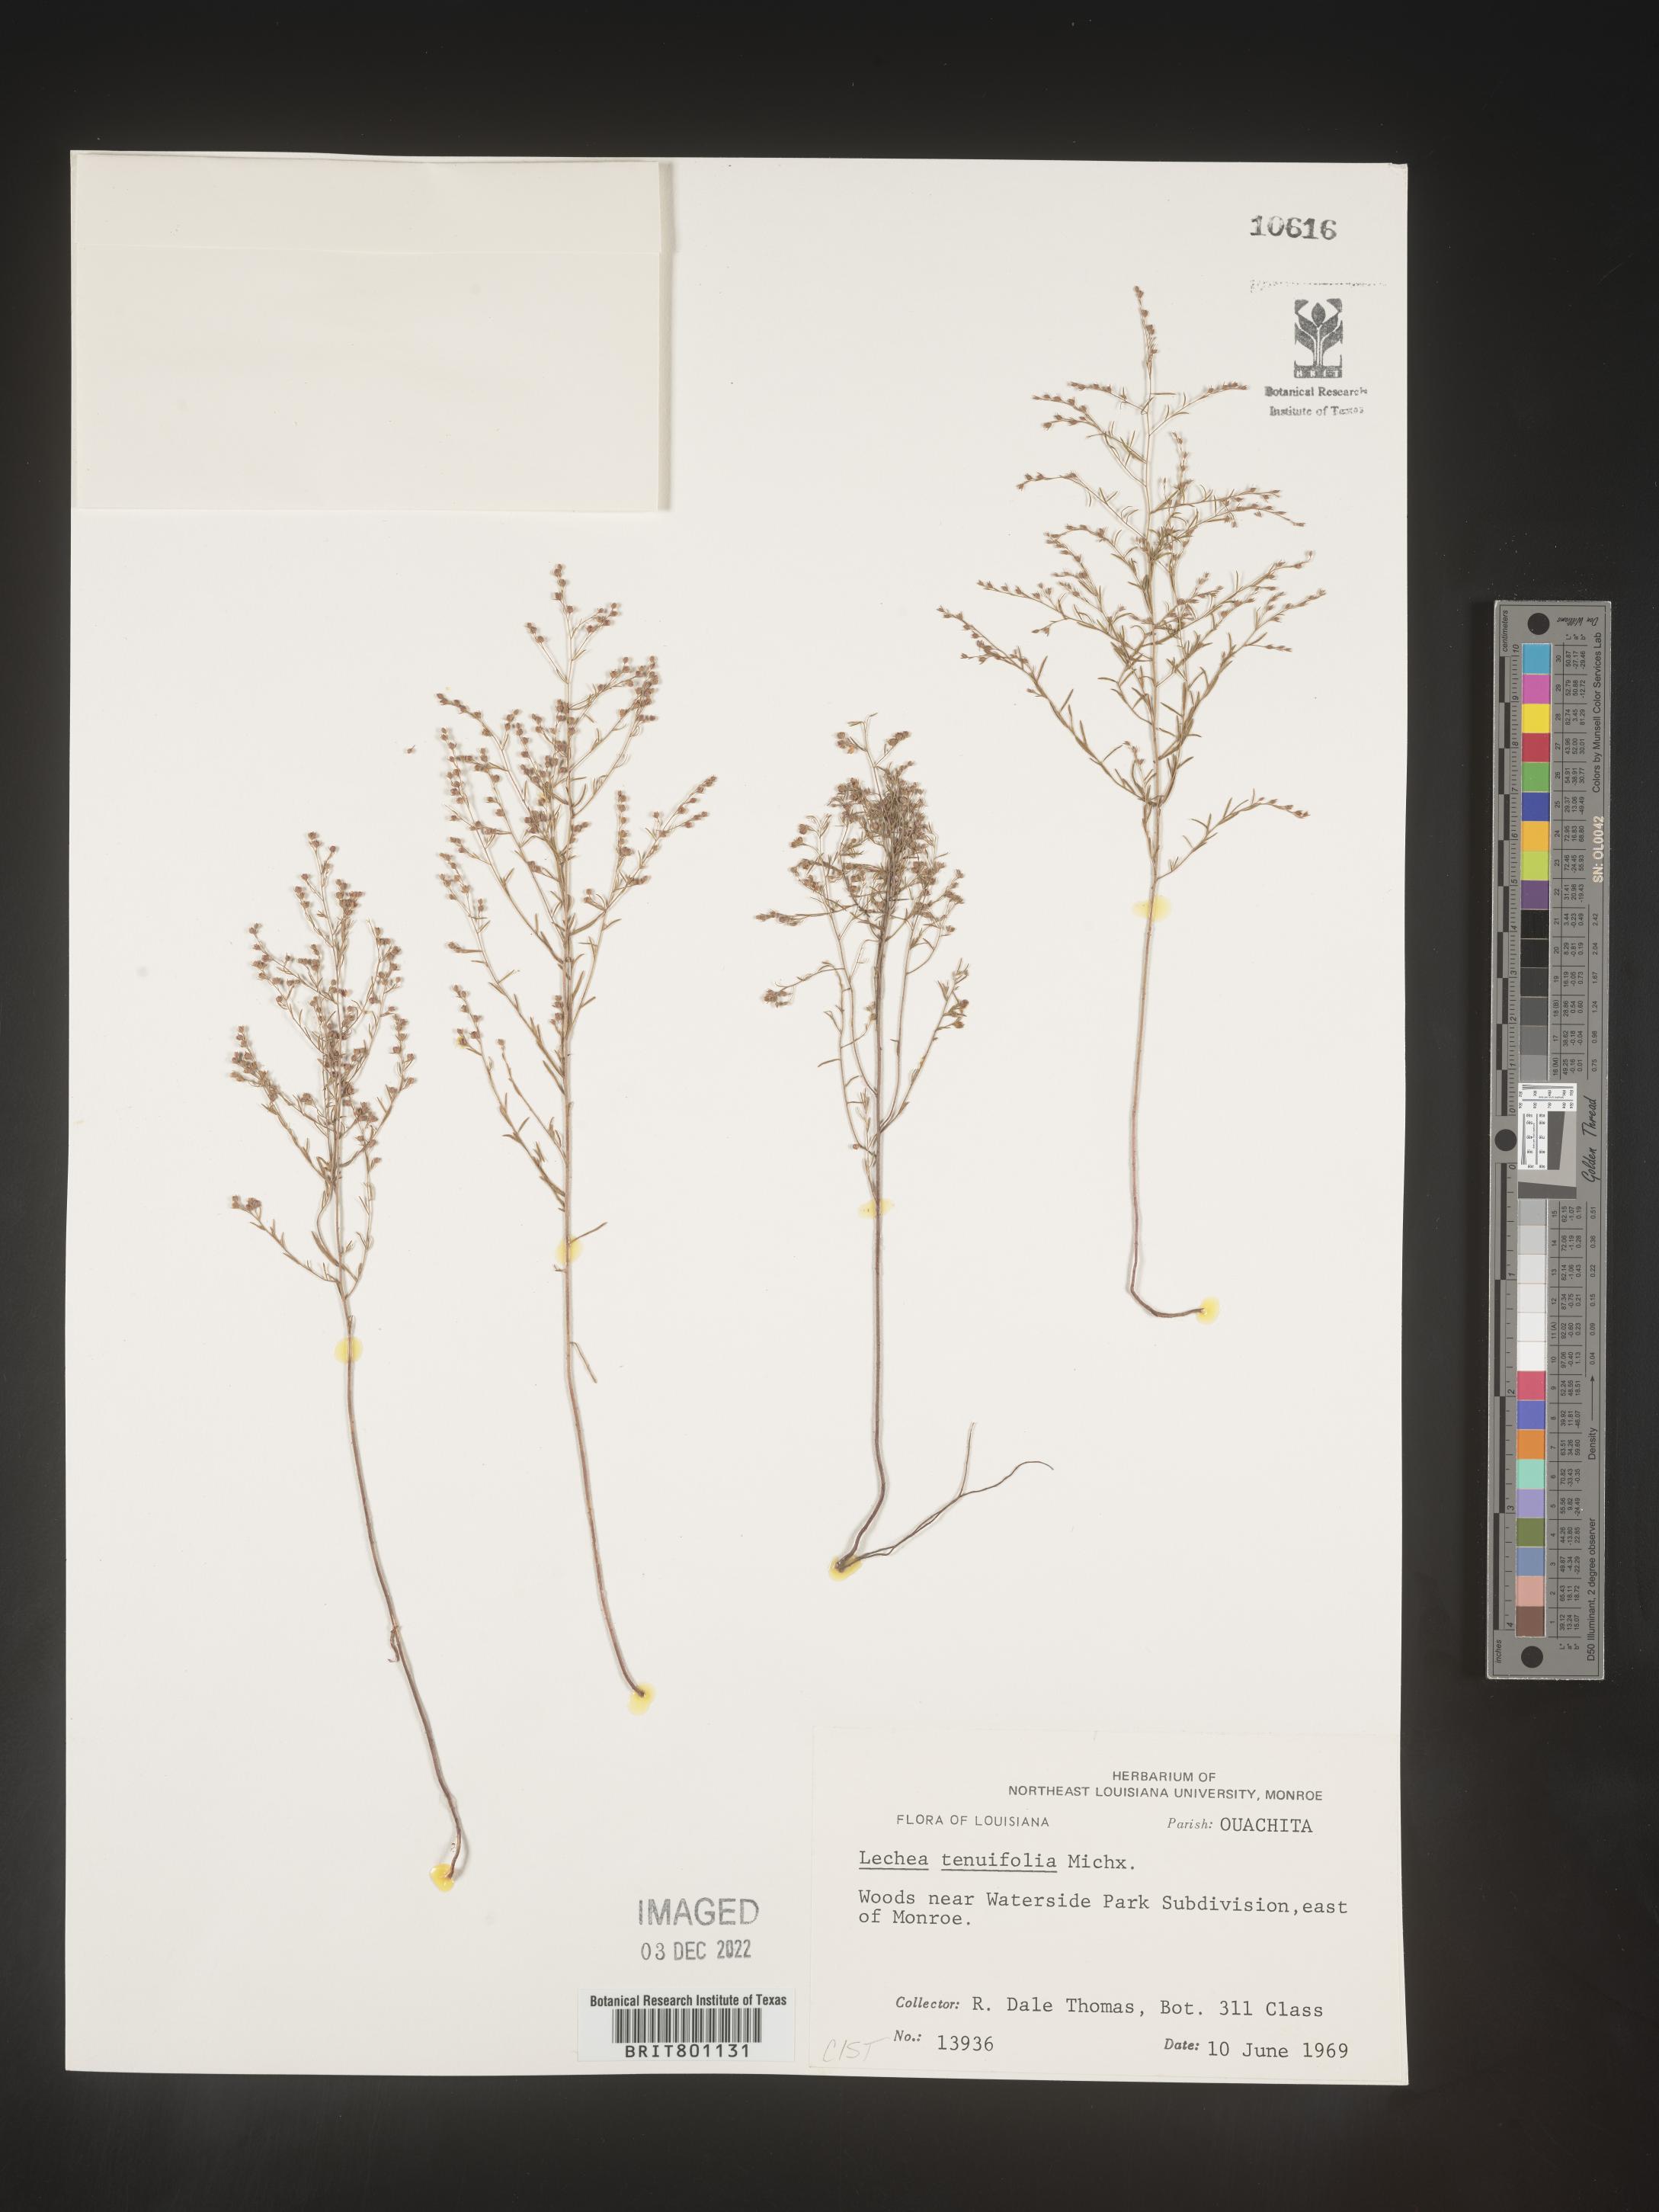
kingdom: Plantae
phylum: Tracheophyta
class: Magnoliopsida
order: Malvales
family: Cistaceae
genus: Lechea
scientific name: Lechea tenuifolia
